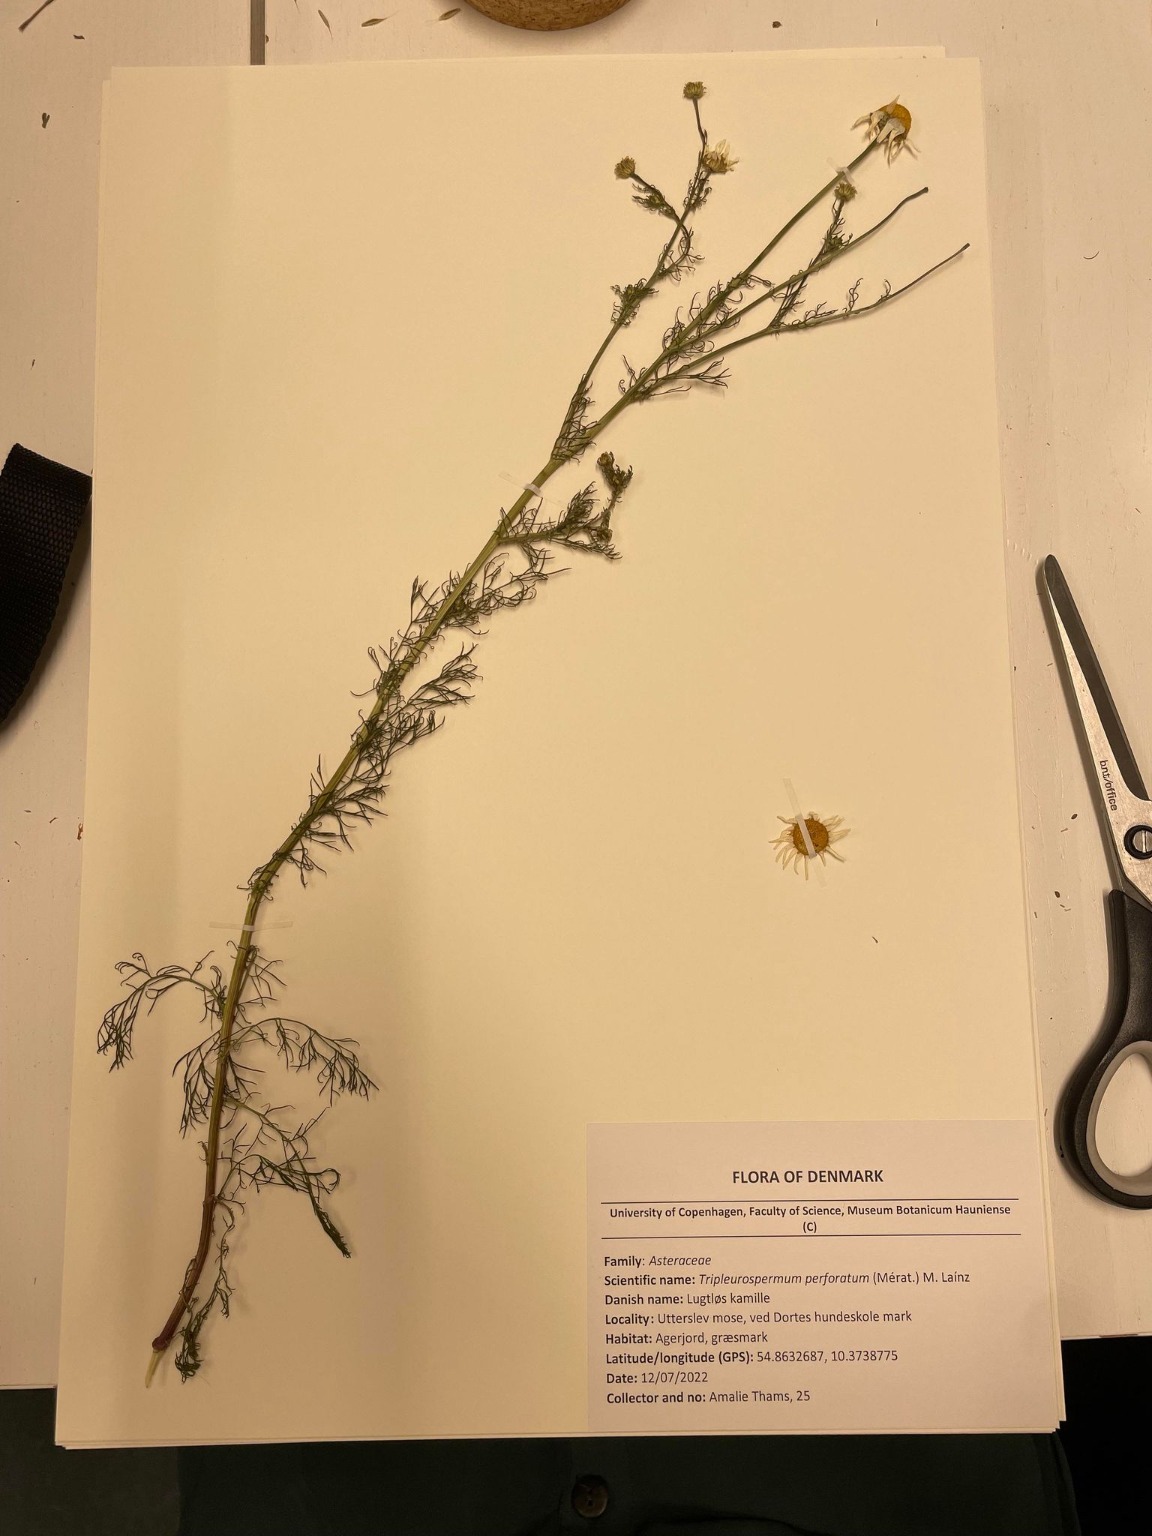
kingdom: Plantae
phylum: Tracheophyta
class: Magnoliopsida
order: Asterales
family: Asteraceae
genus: Tripleurospermum
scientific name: Tripleurospermum inodorum
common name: Lugtløs kamille
